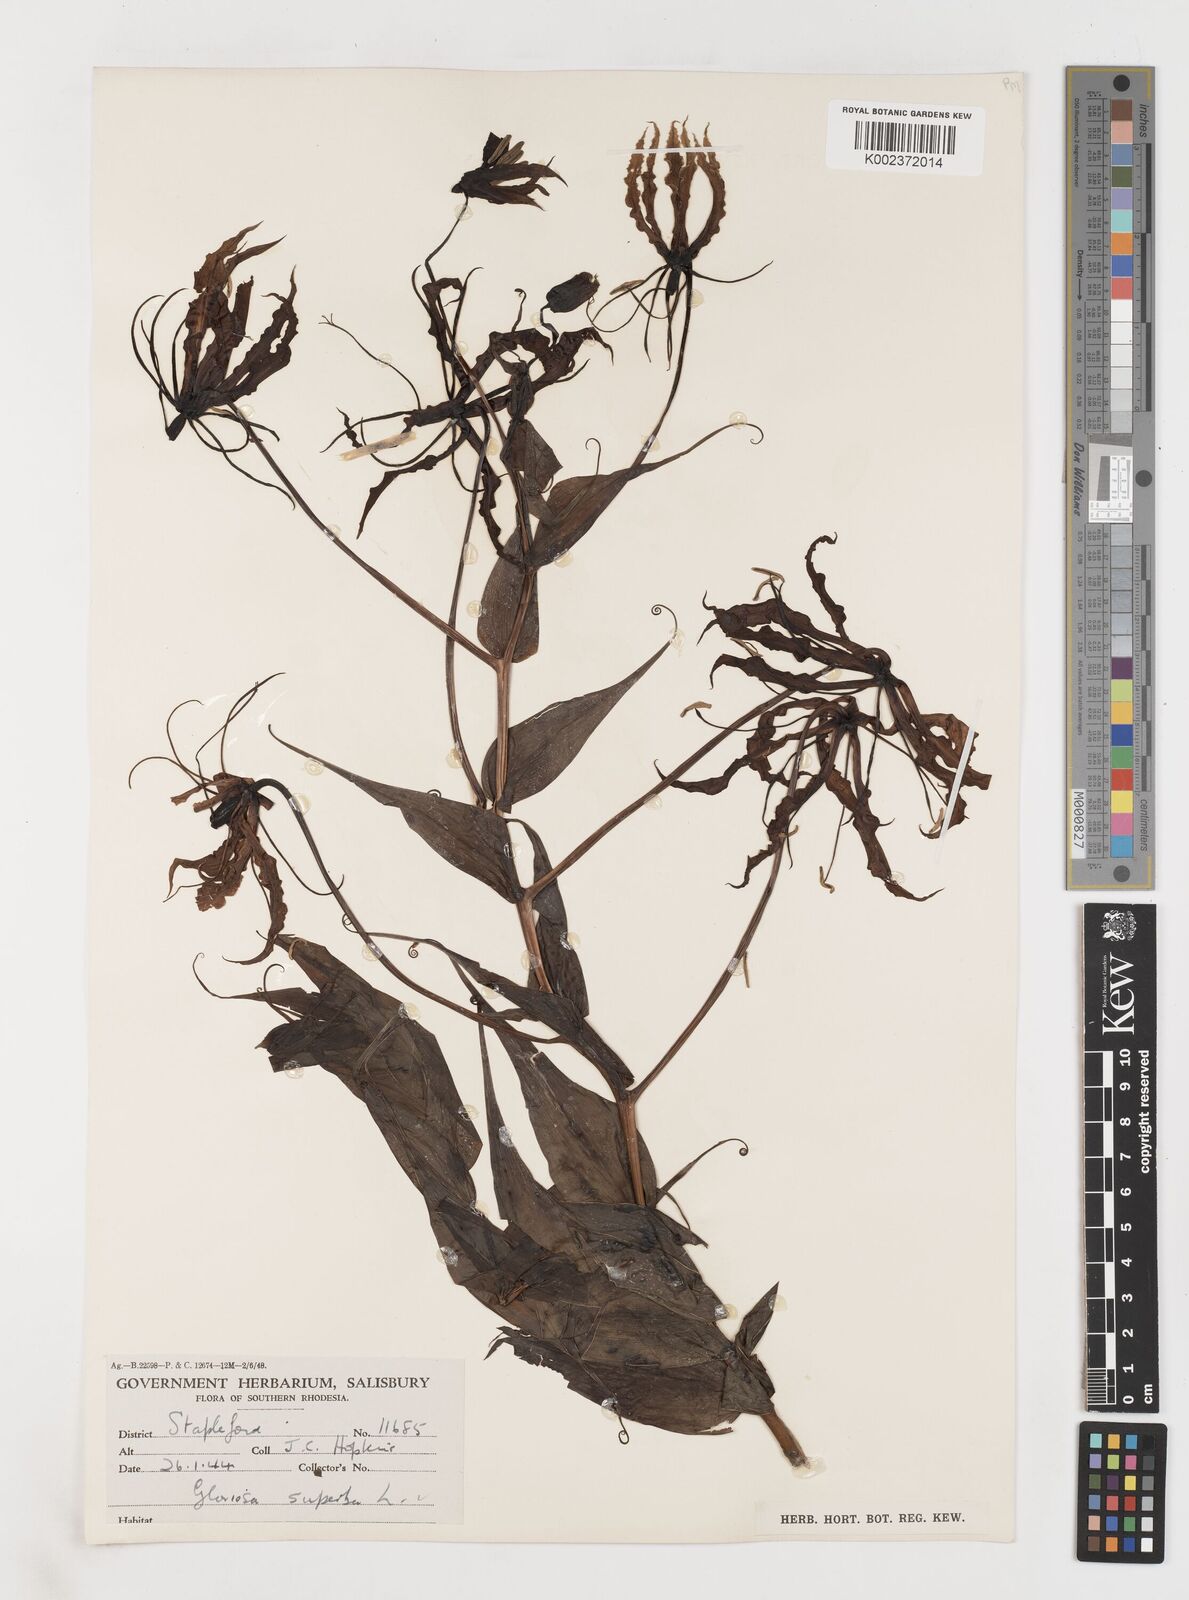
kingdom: Plantae
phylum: Tracheophyta
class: Liliopsida
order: Liliales
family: Colchicaceae
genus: Gloriosa
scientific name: Gloriosa superba
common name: Flame lily
